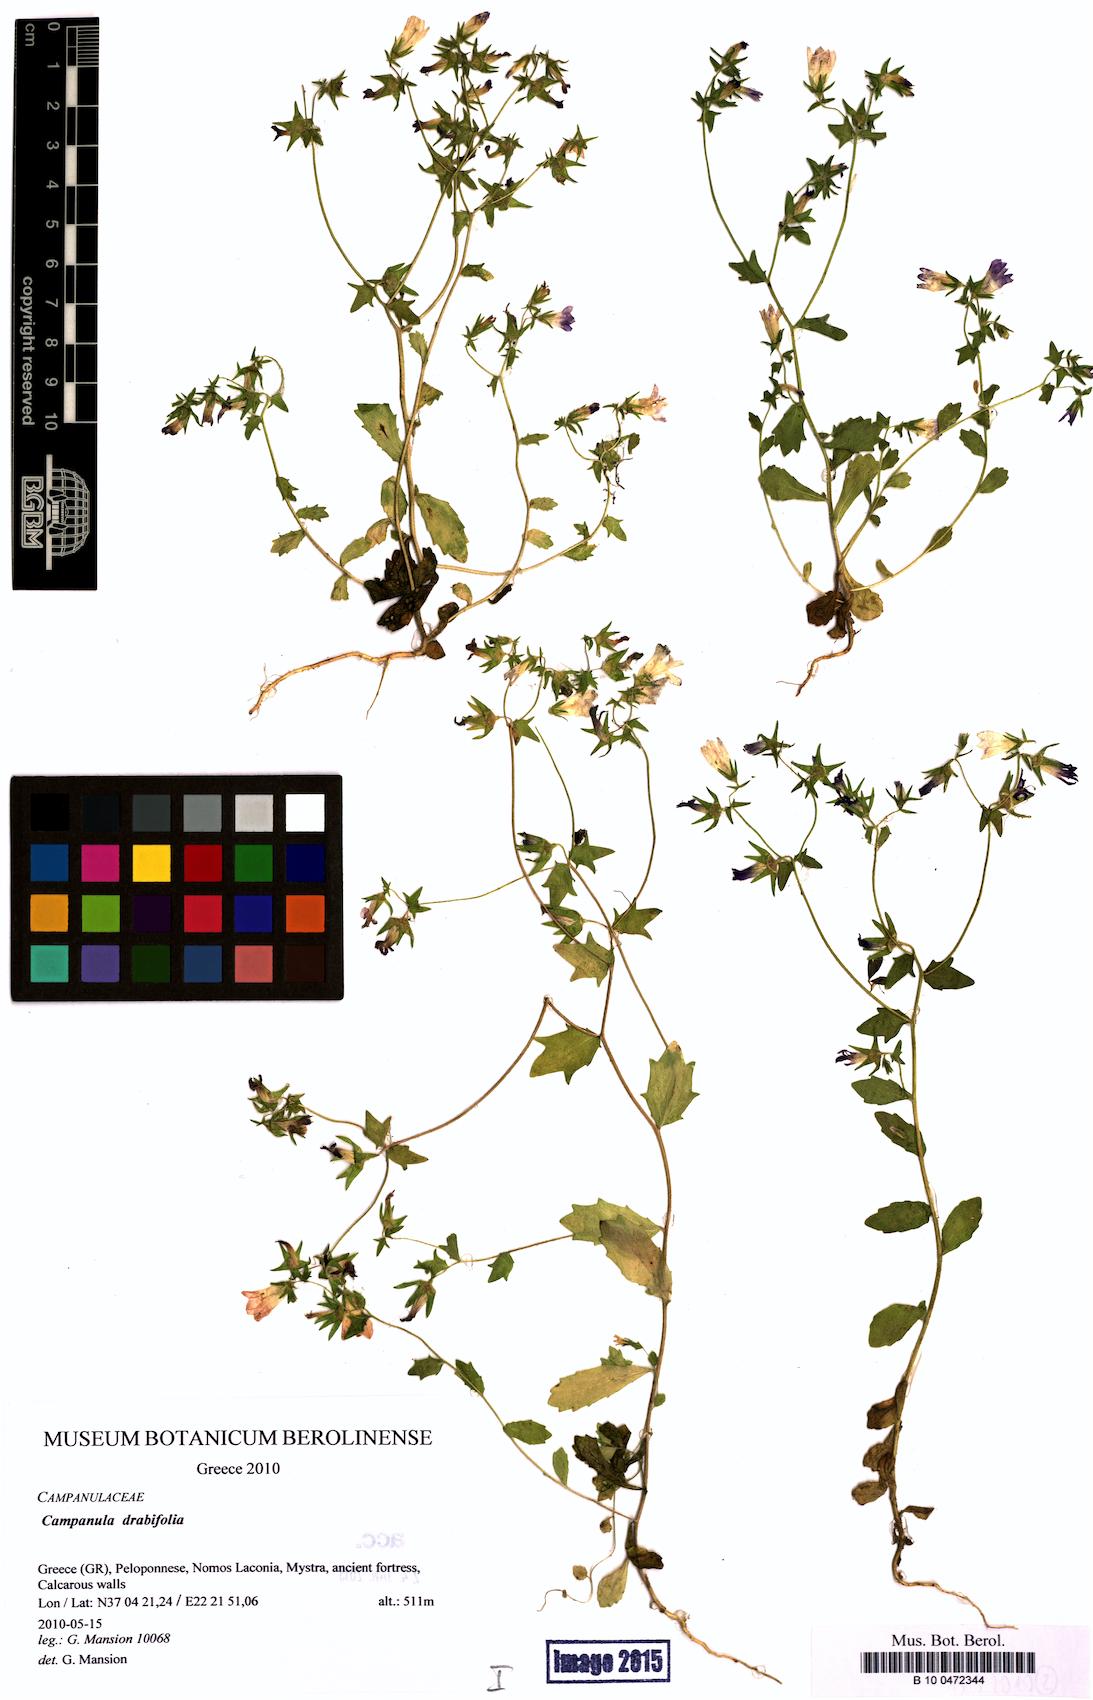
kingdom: Plantae
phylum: Tracheophyta
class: Magnoliopsida
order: Asterales
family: Campanulaceae
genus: Campanula
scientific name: Campanula drabifolia
